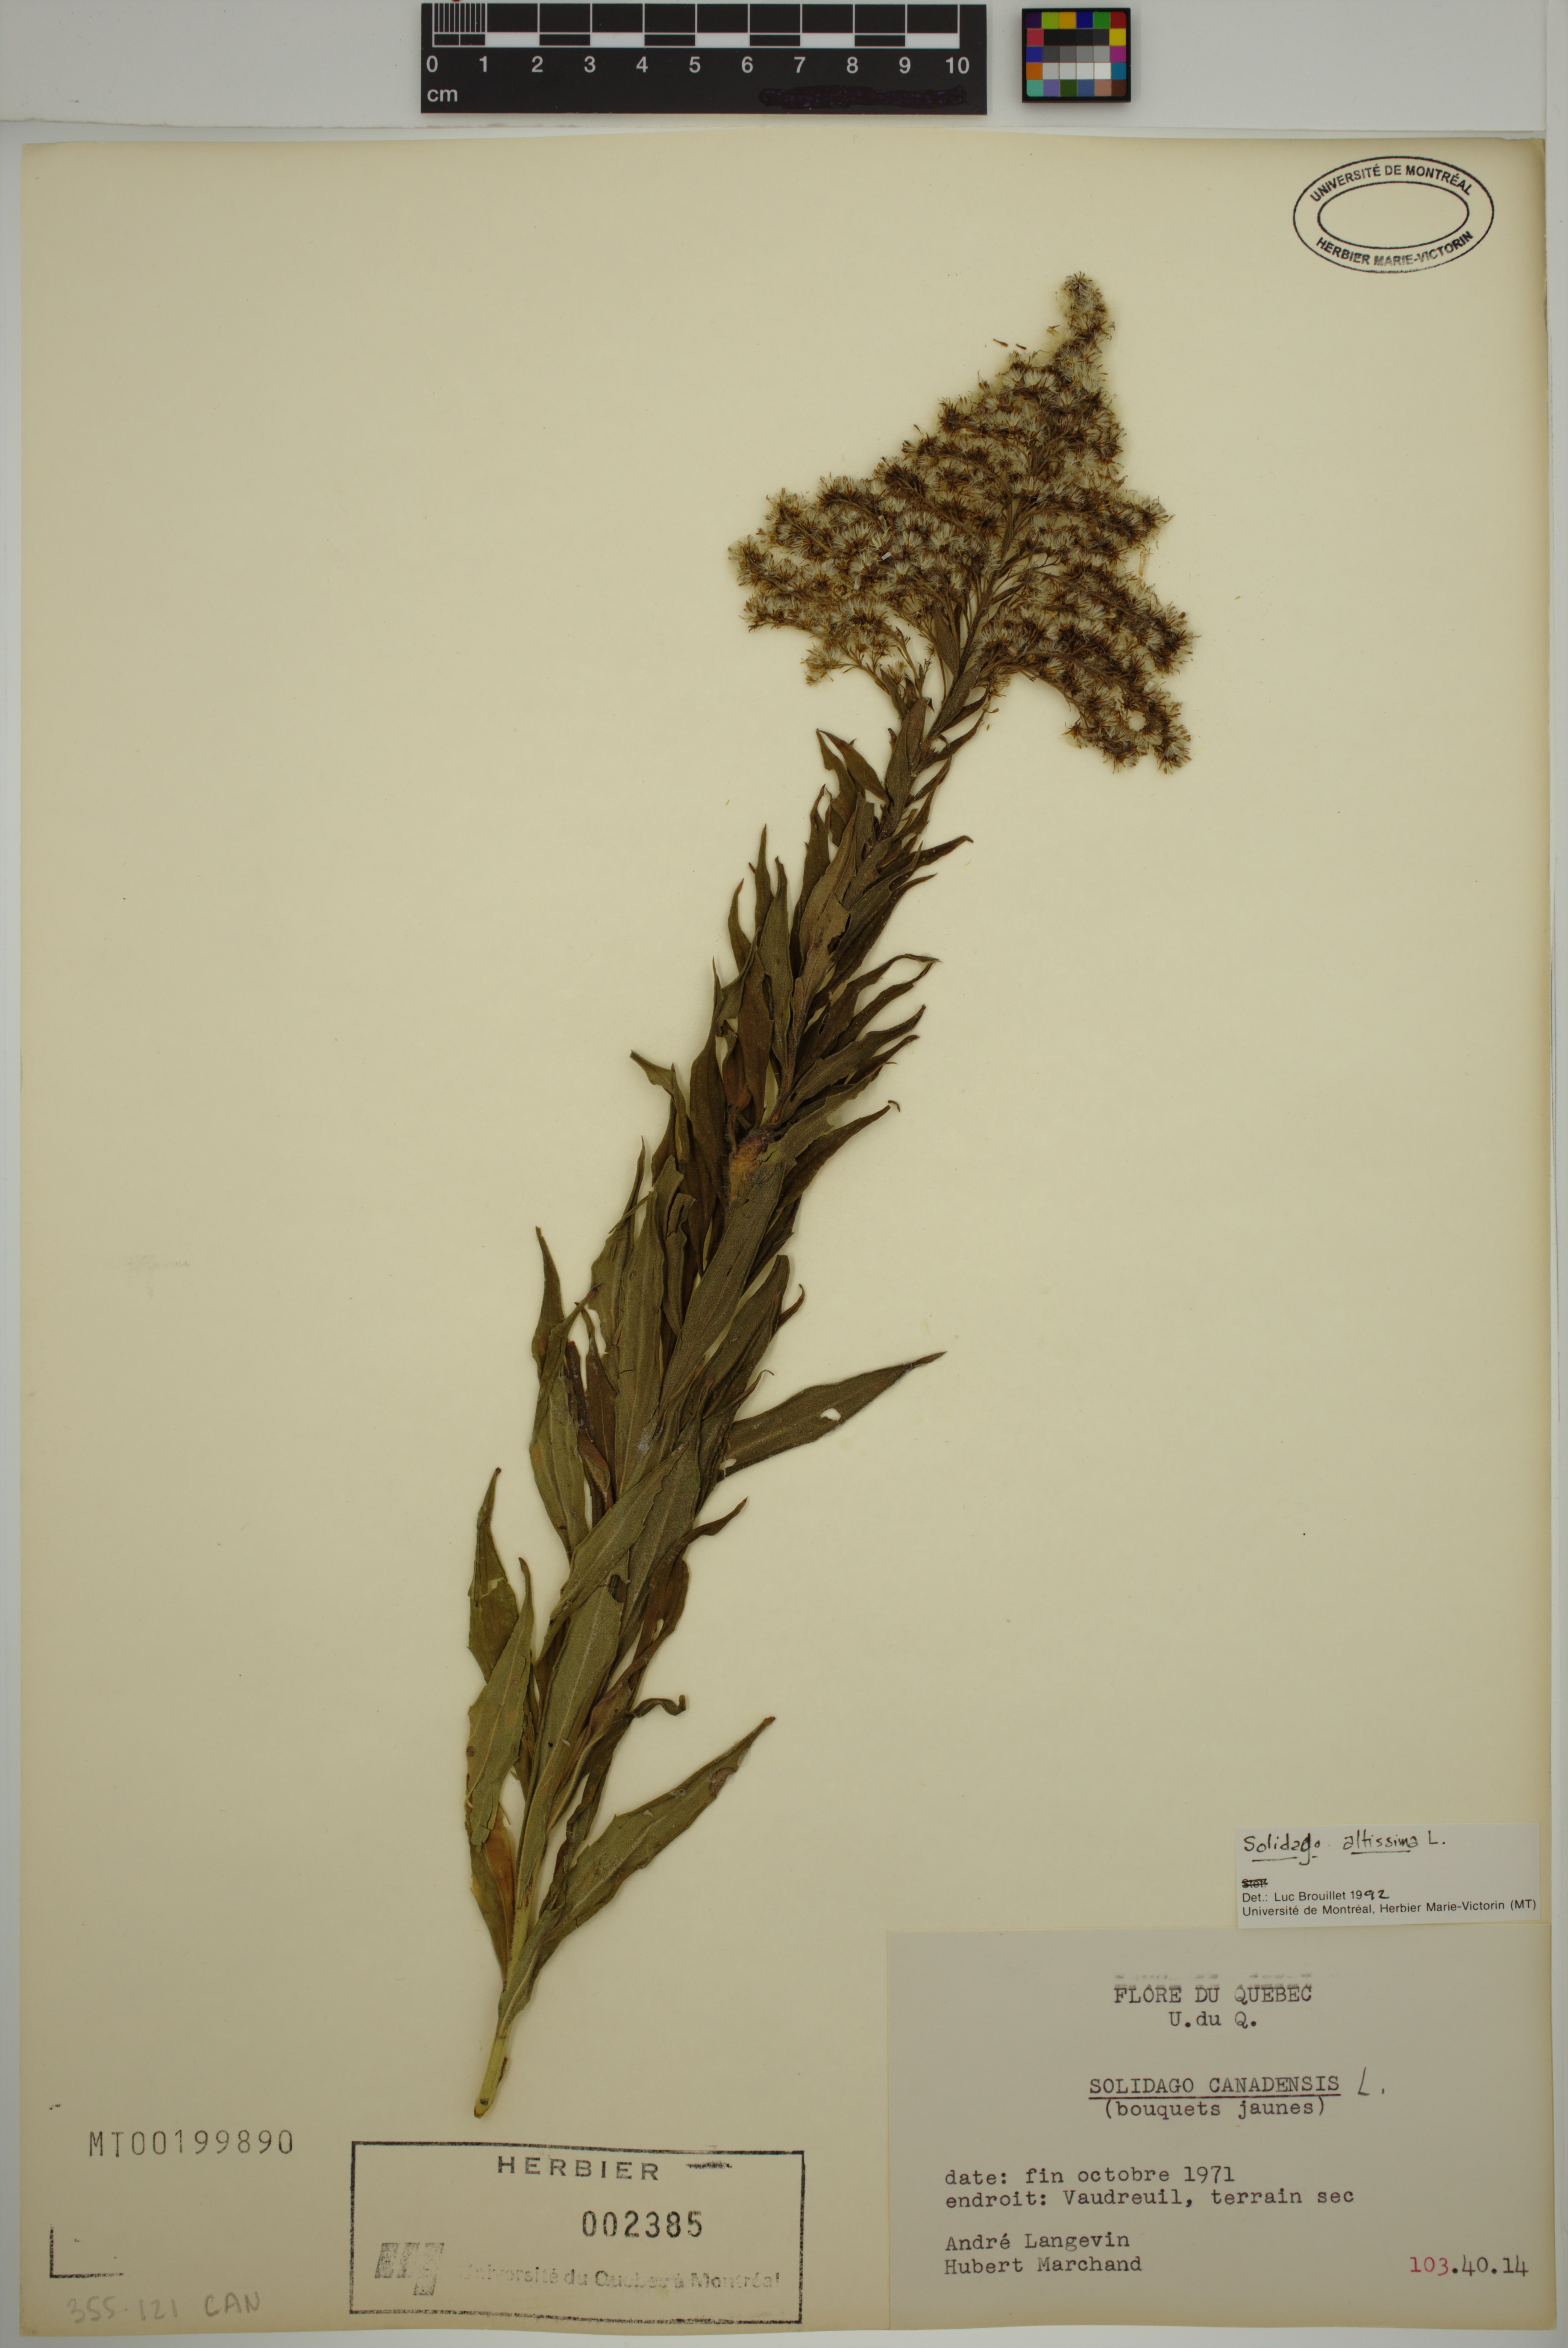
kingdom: Plantae
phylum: Tracheophyta
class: Magnoliopsida
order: Asterales
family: Asteraceae
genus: Solidago
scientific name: Solidago altissima
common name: Late goldenrod
